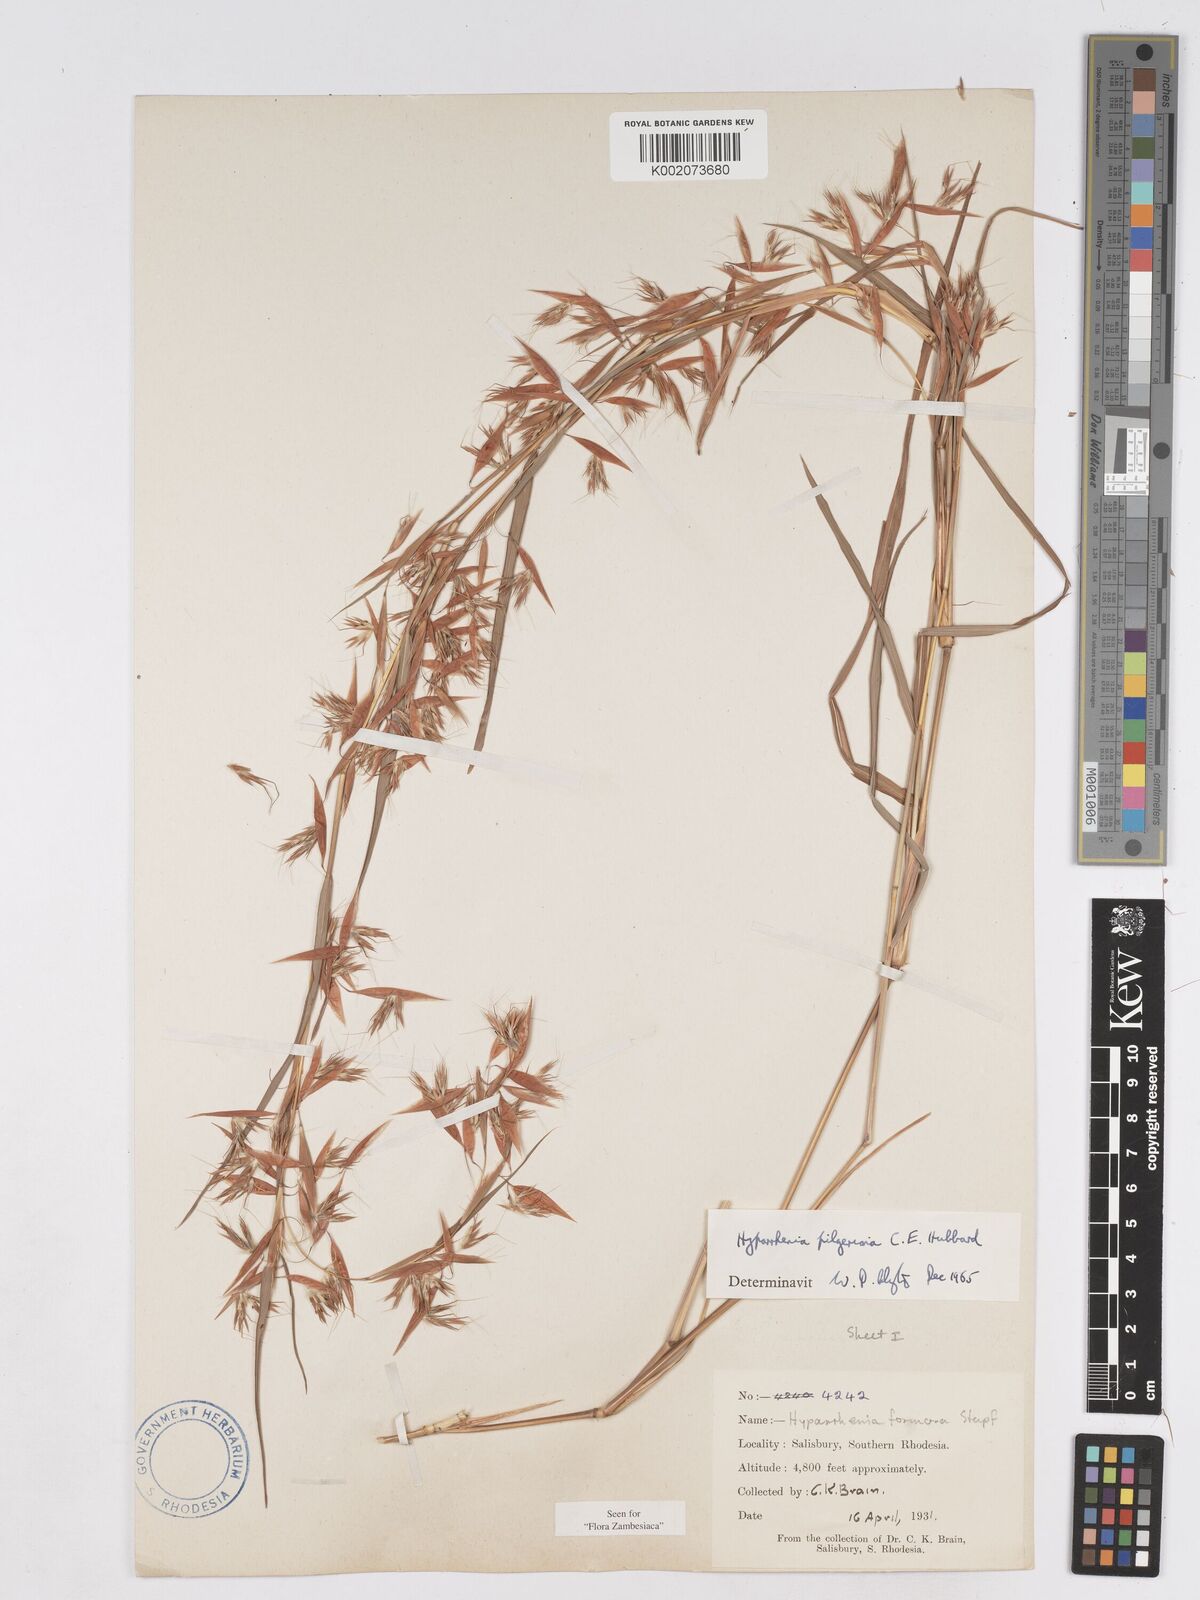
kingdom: Plantae
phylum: Tracheophyta
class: Liliopsida
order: Poales
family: Poaceae
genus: Hyparrhenia
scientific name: Hyparrhenia pilgeriana
